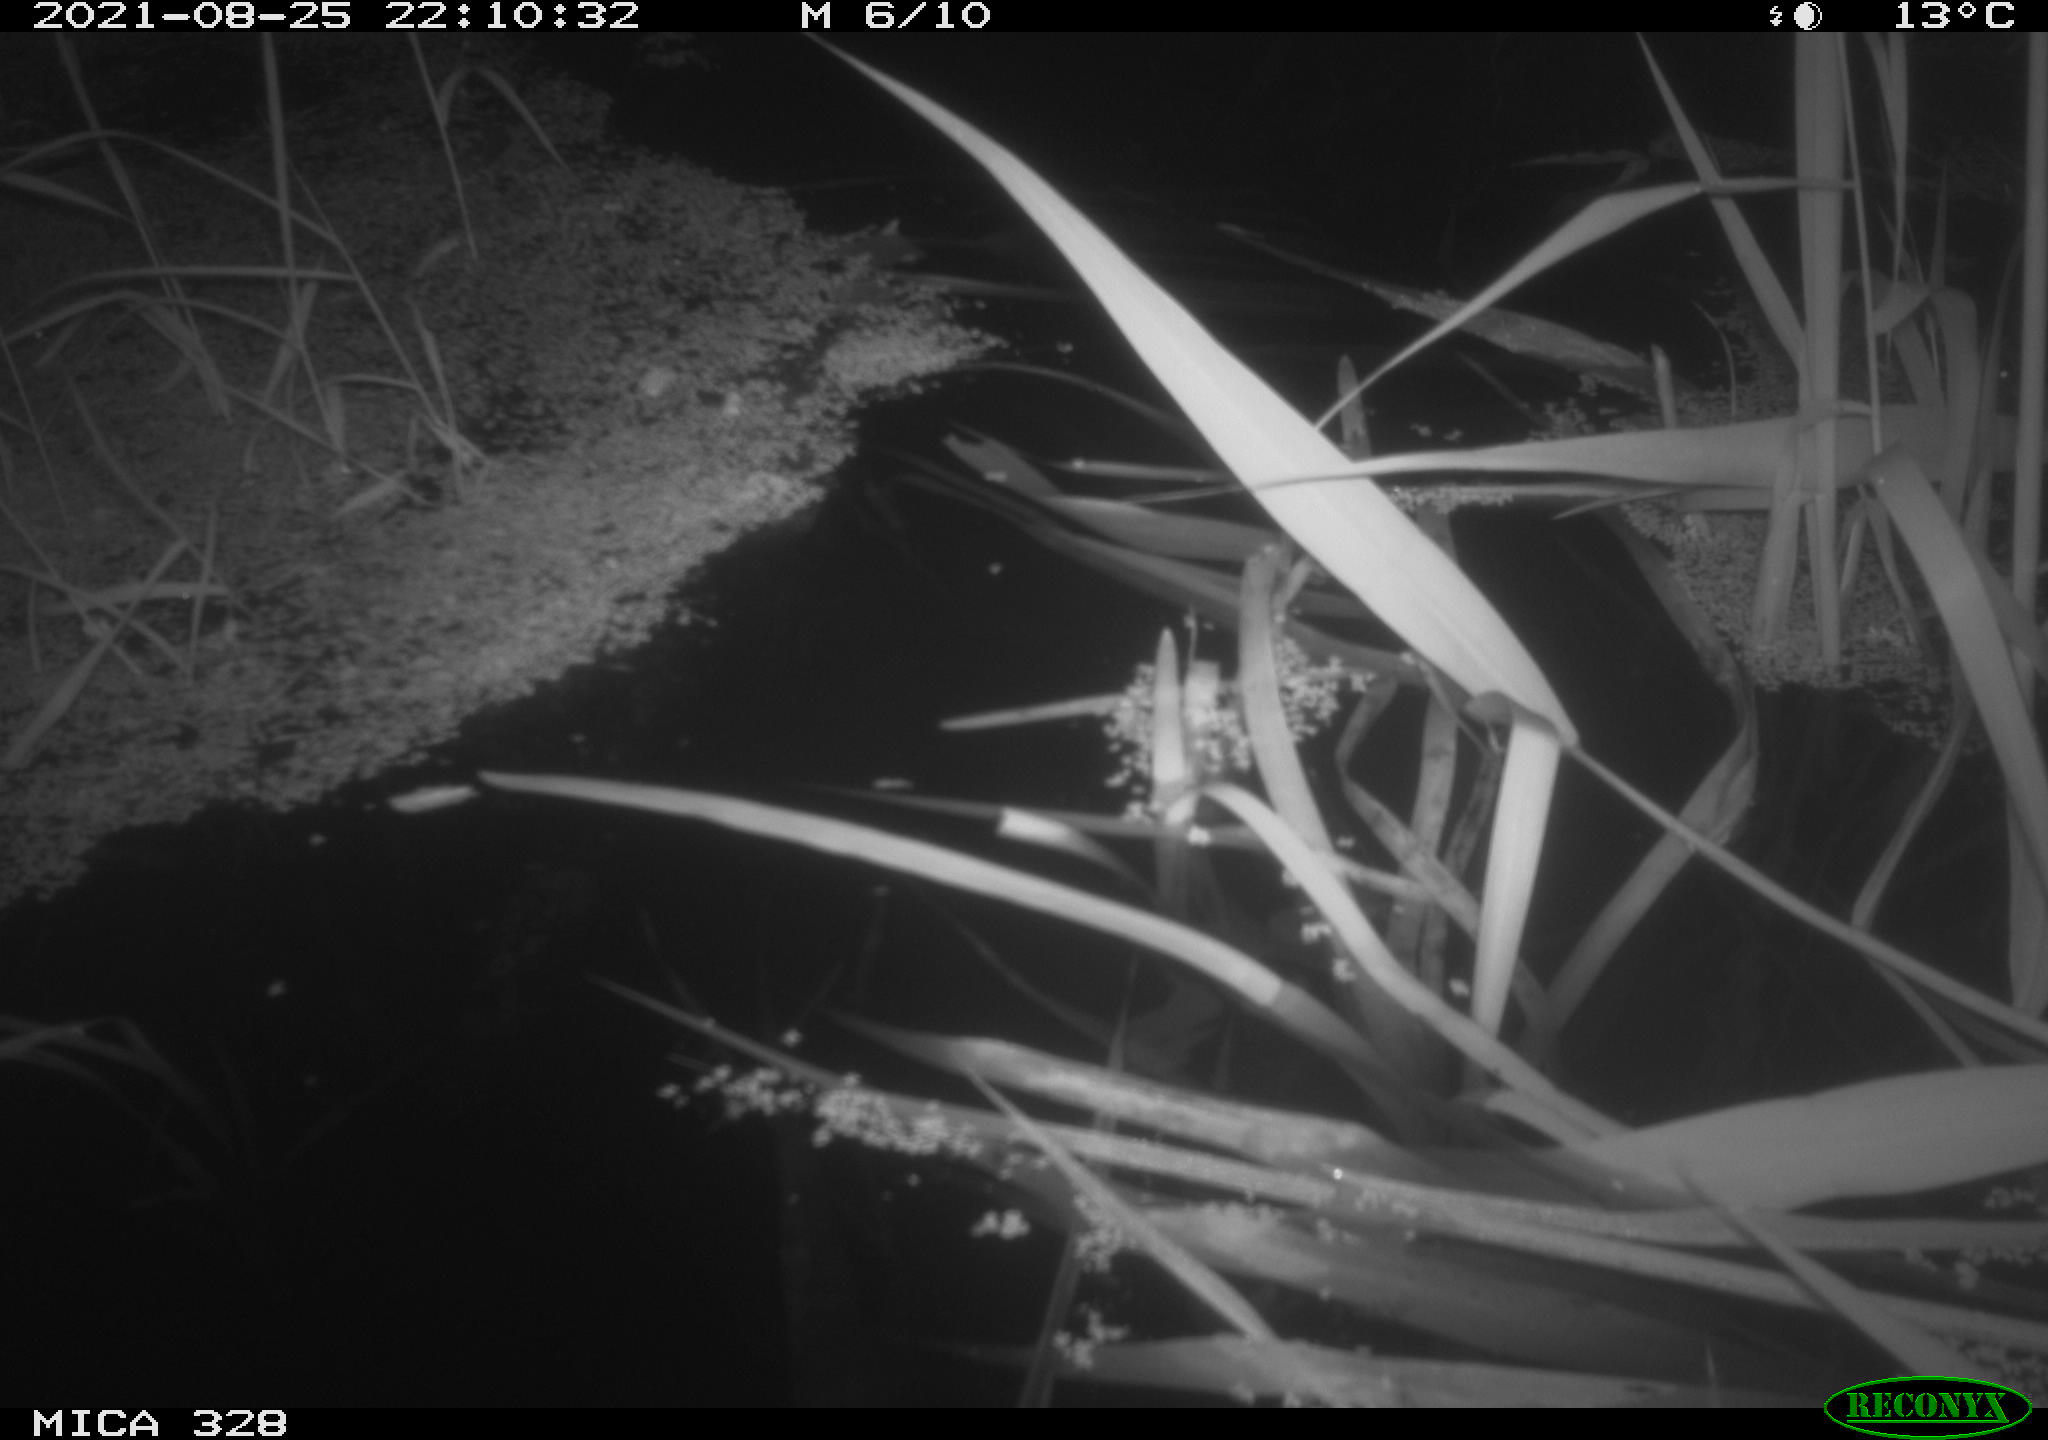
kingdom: Animalia
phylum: Chordata
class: Mammalia
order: Rodentia
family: Cricetidae
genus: Ondatra
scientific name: Ondatra zibethicus
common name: Muskrat
